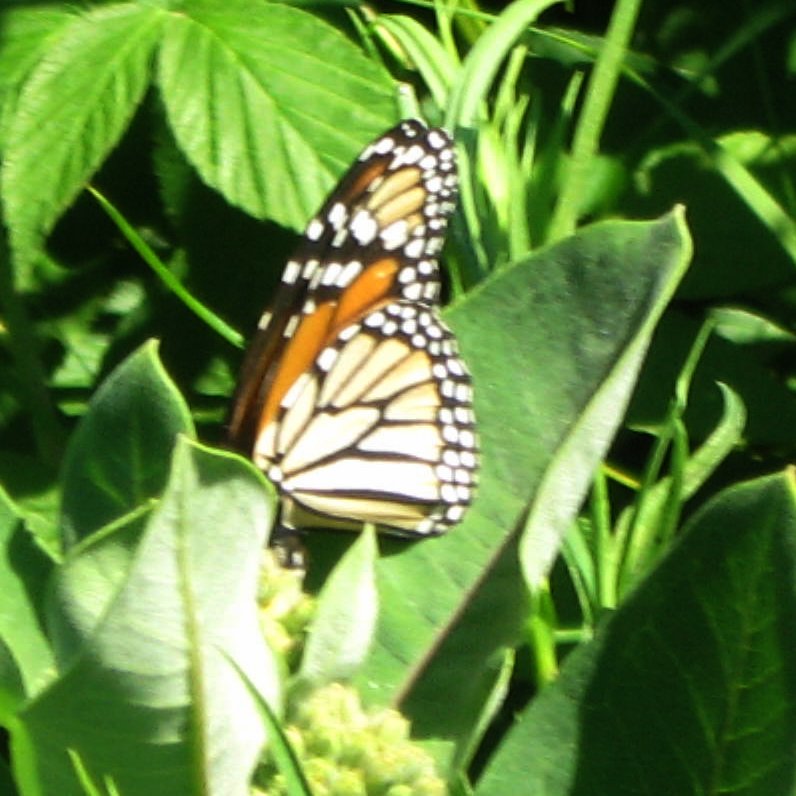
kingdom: Animalia
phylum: Arthropoda
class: Insecta
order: Lepidoptera
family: Nymphalidae
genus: Danaus
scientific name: Danaus plexippus
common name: Monarch
